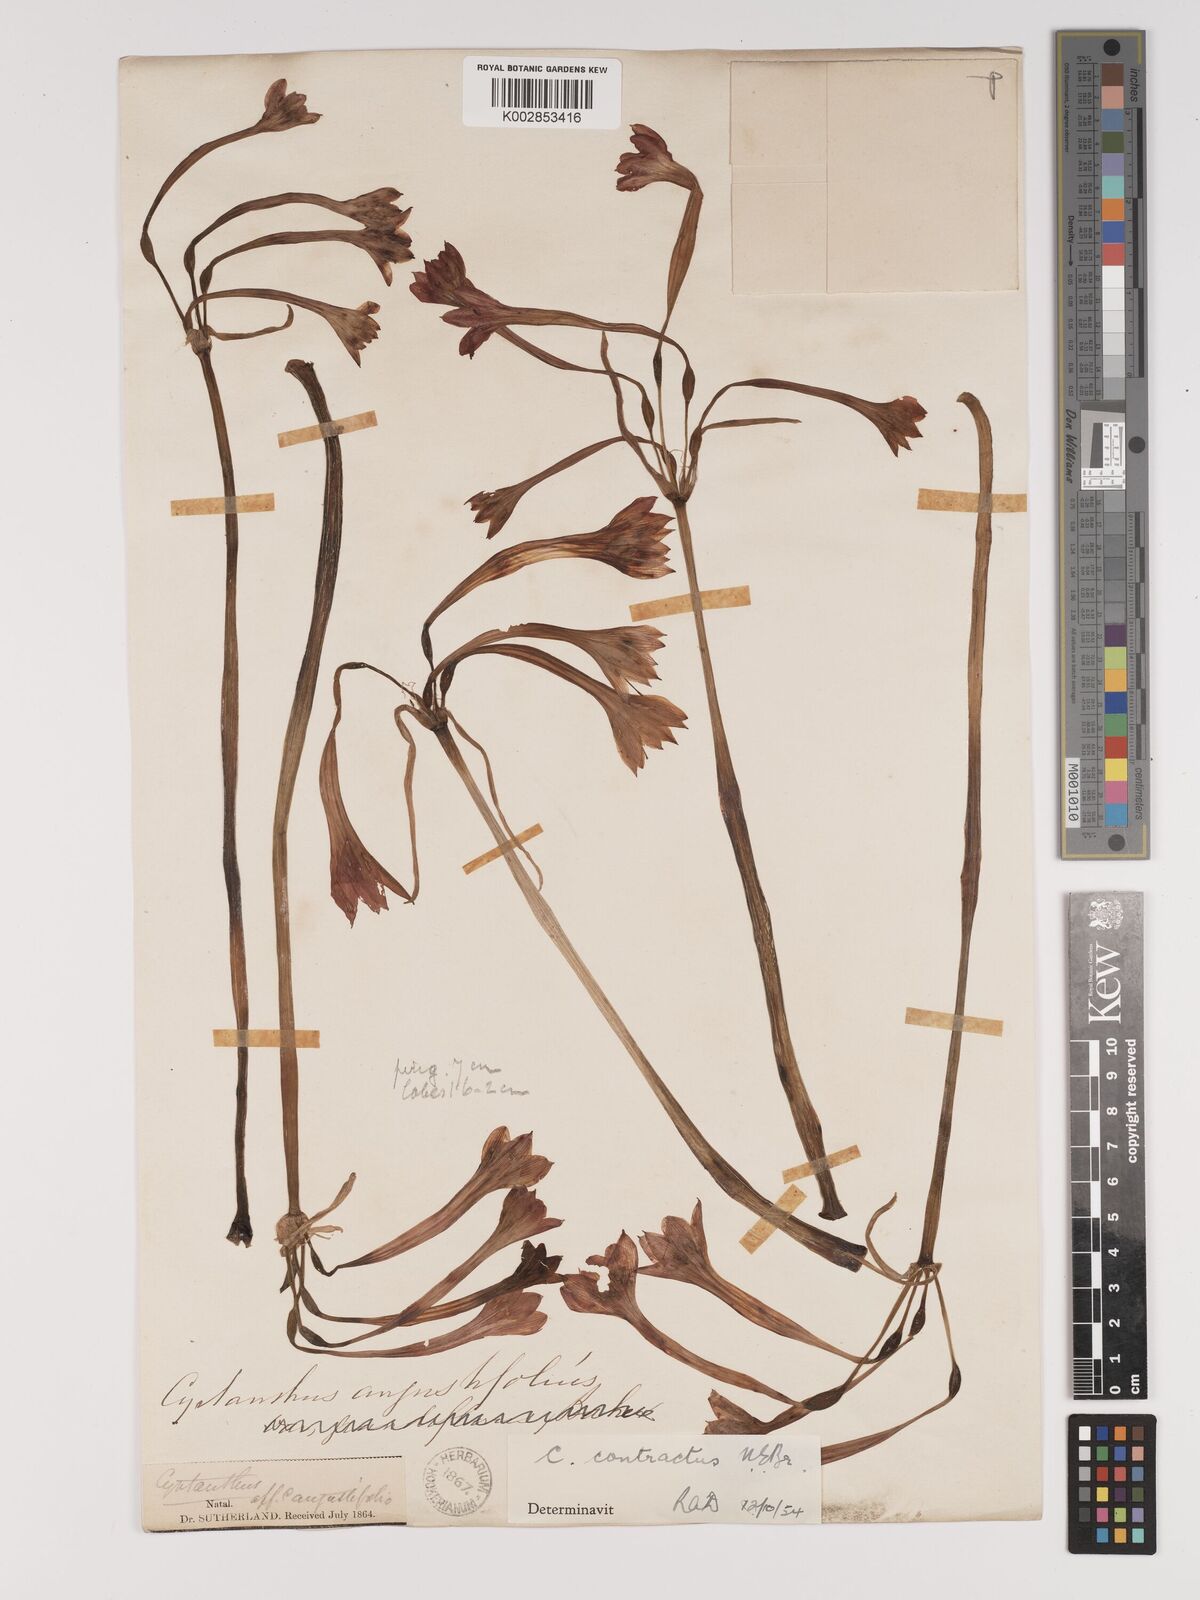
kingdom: Plantae
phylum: Tracheophyta
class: Liliopsida
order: Asparagales
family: Amaryllidaceae
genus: Cyrtanthus
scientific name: Cyrtanthus contractus
